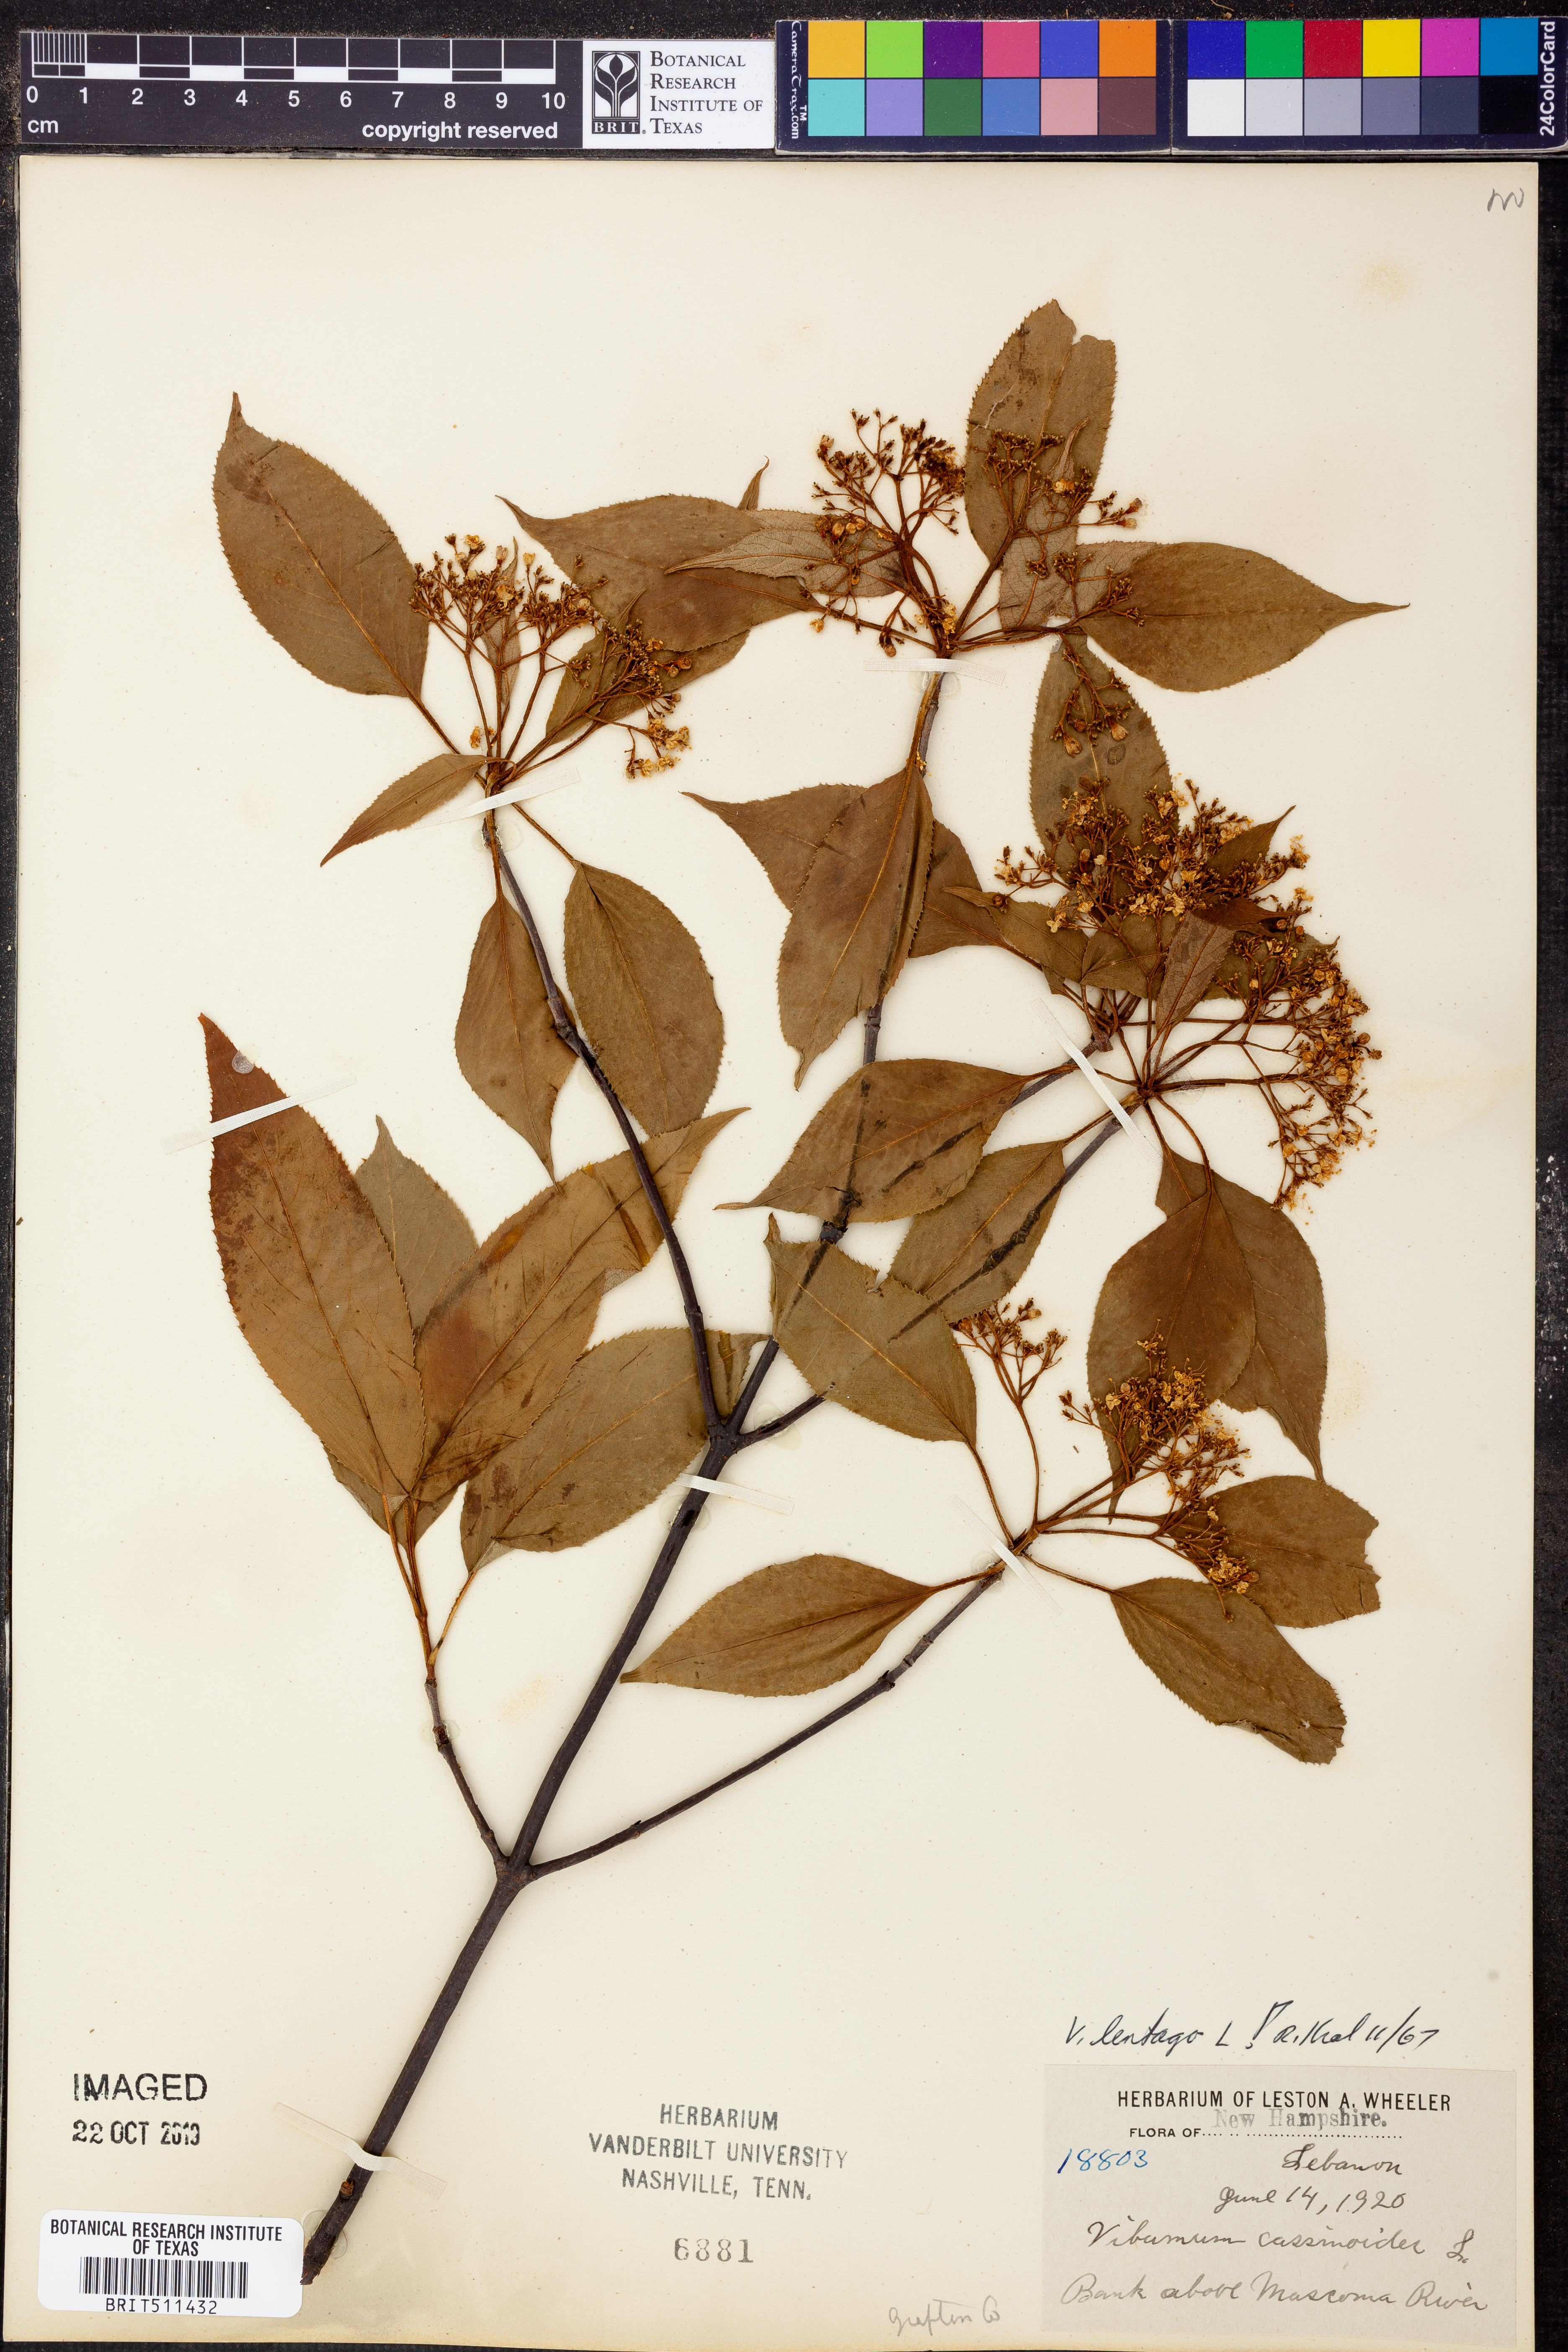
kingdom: Plantae
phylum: Tracheophyta
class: Magnoliopsida
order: Dipsacales
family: Viburnaceae
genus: Viburnum
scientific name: Viburnum lentago
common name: Black haw
